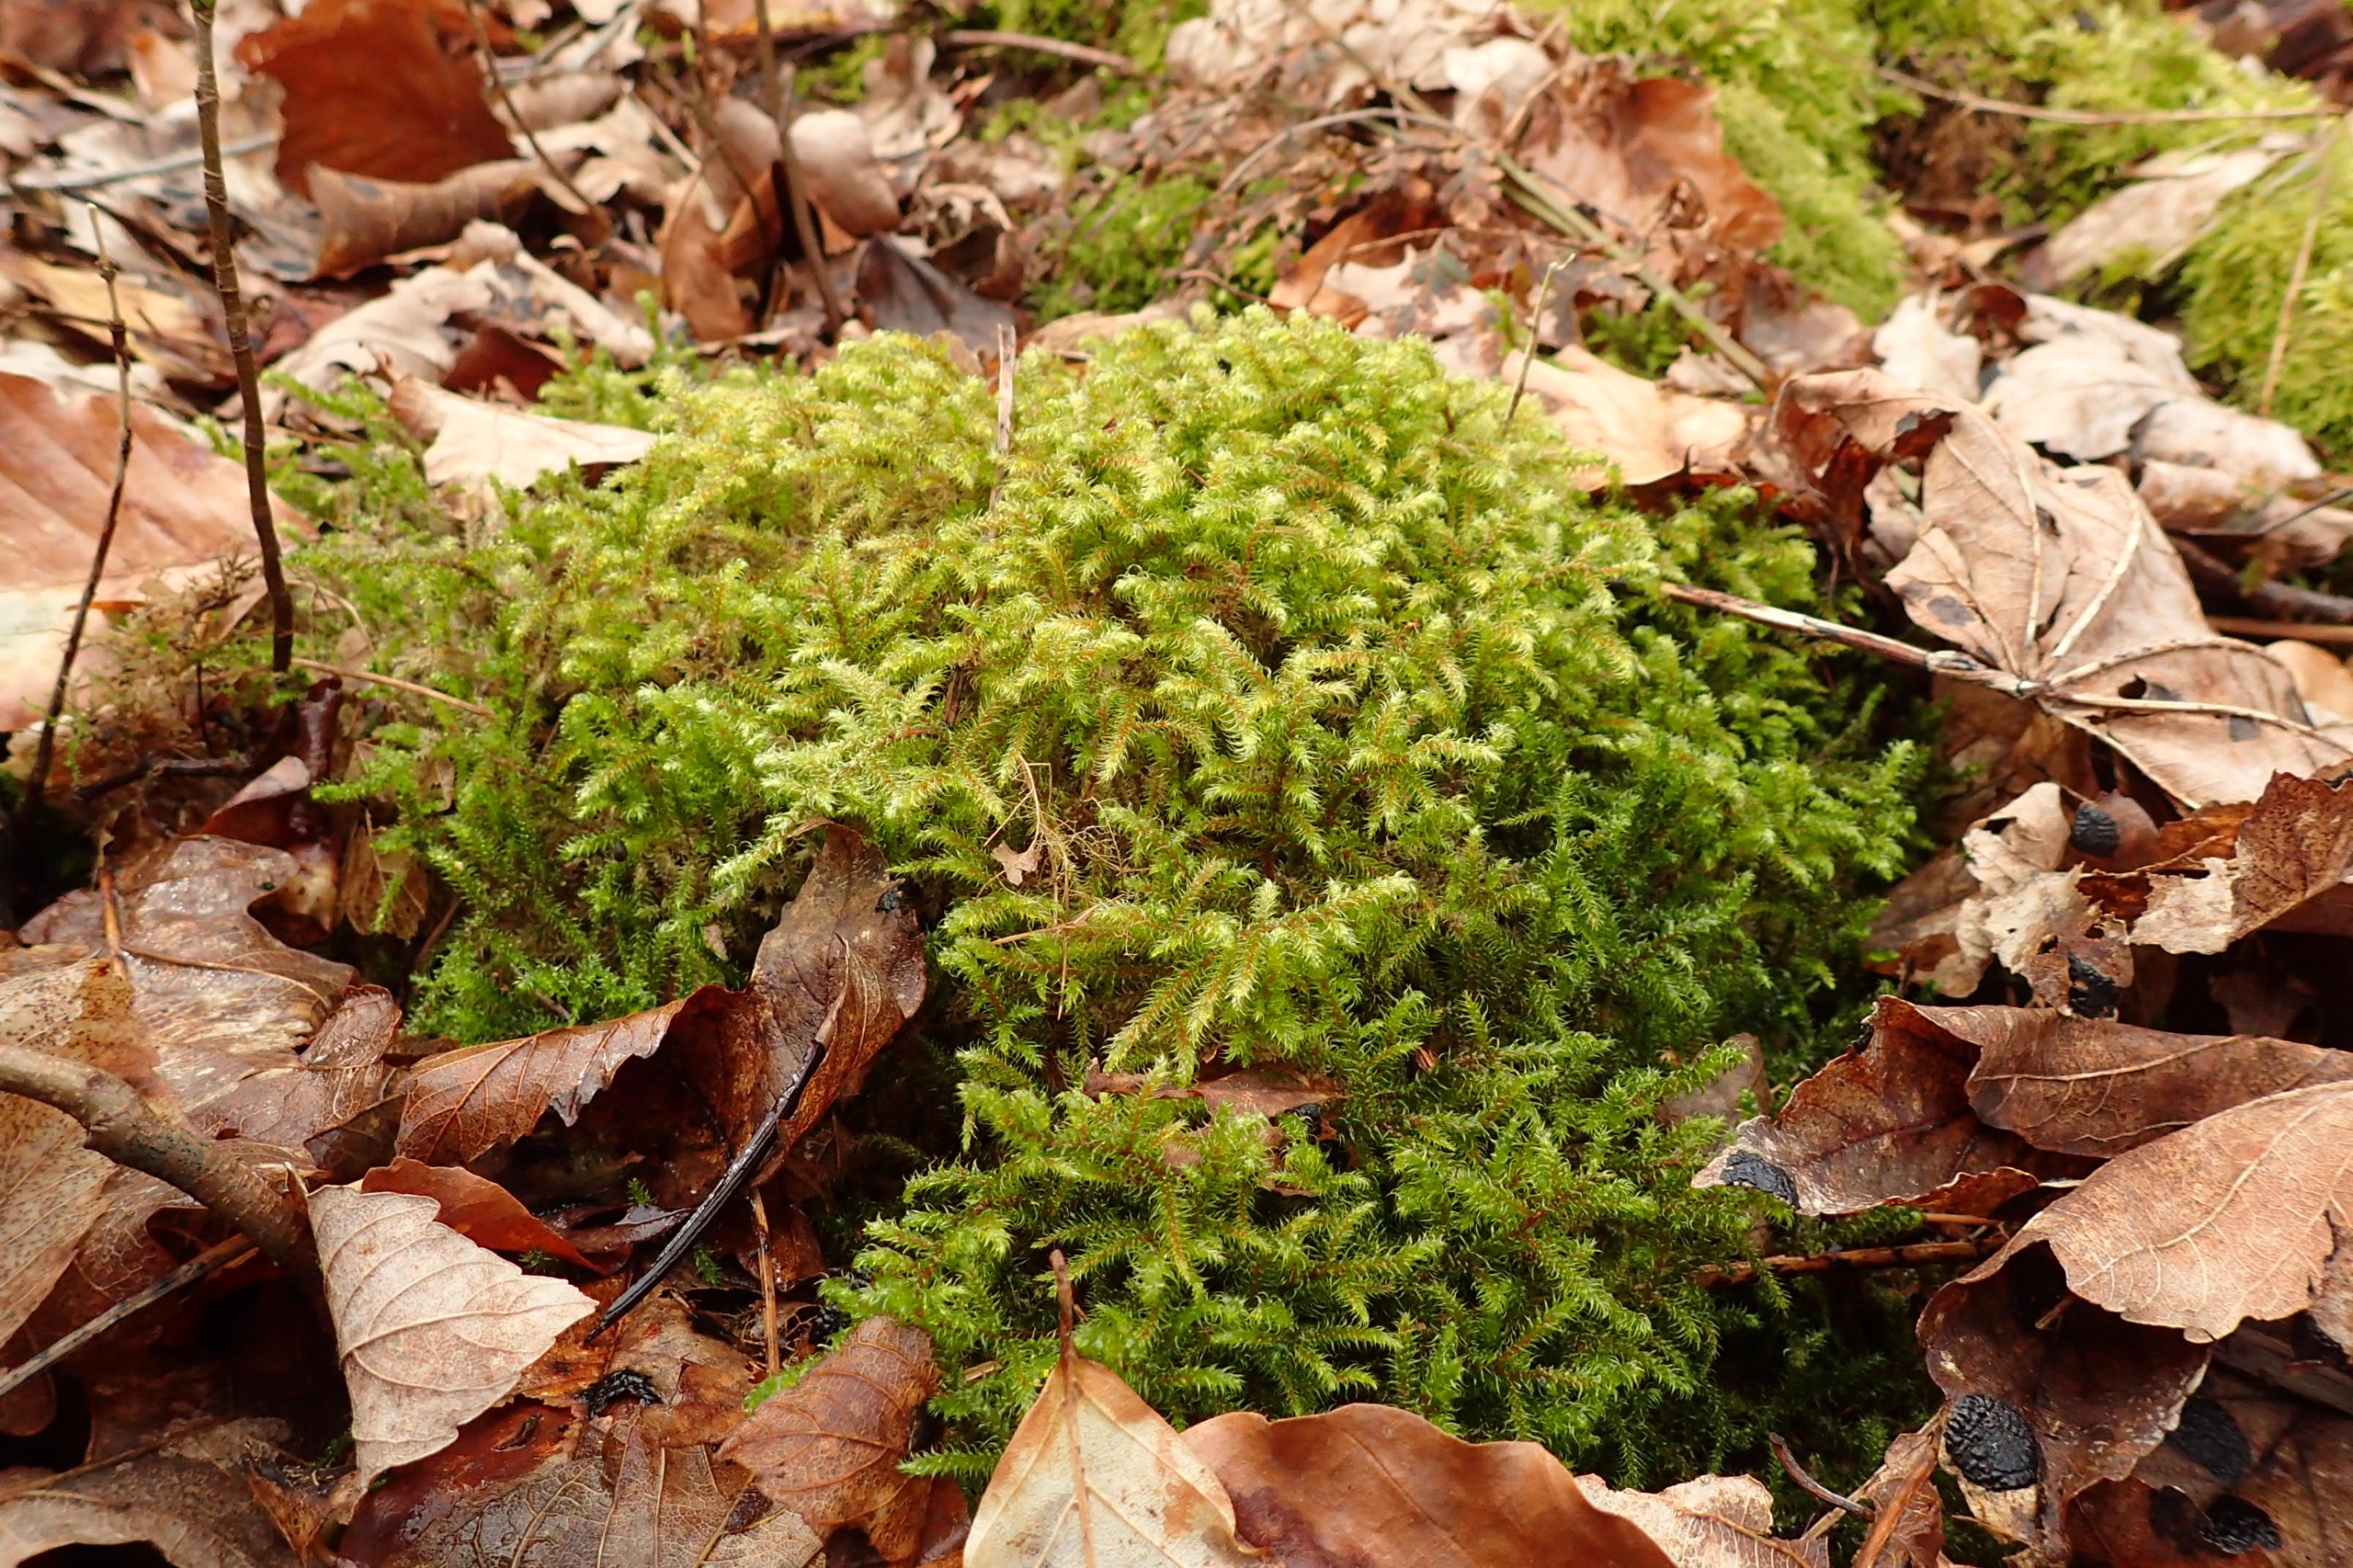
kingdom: Plantae
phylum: Bryophyta
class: Bryopsida
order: Hypnales
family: Hylocomiaceae
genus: Rhytidiadelphus
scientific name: Rhytidiadelphus loreus
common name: Ulvefod-kransemos
